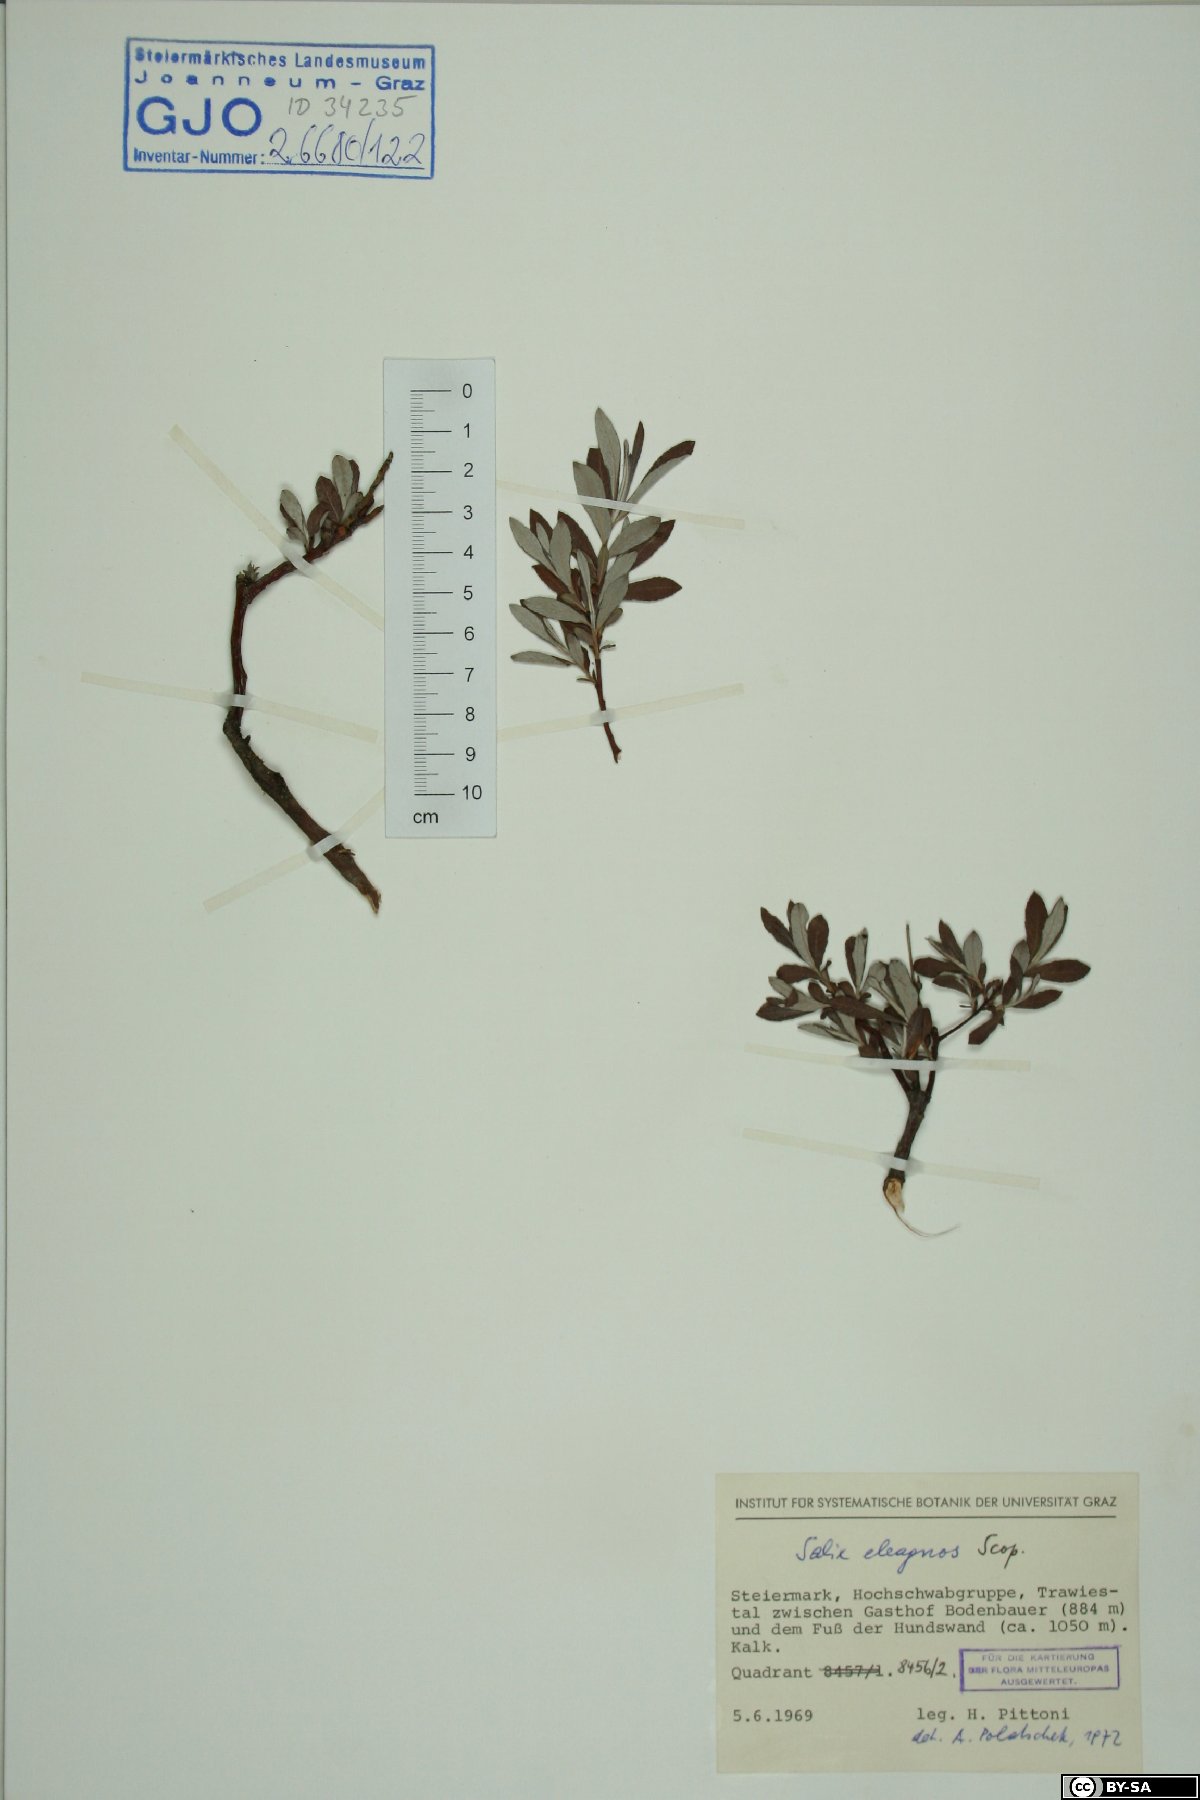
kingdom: Plantae
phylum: Tracheophyta
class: Magnoliopsida
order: Malpighiales
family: Salicaceae
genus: Salix
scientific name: Salix eleagnos
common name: Elaeagnus willow
